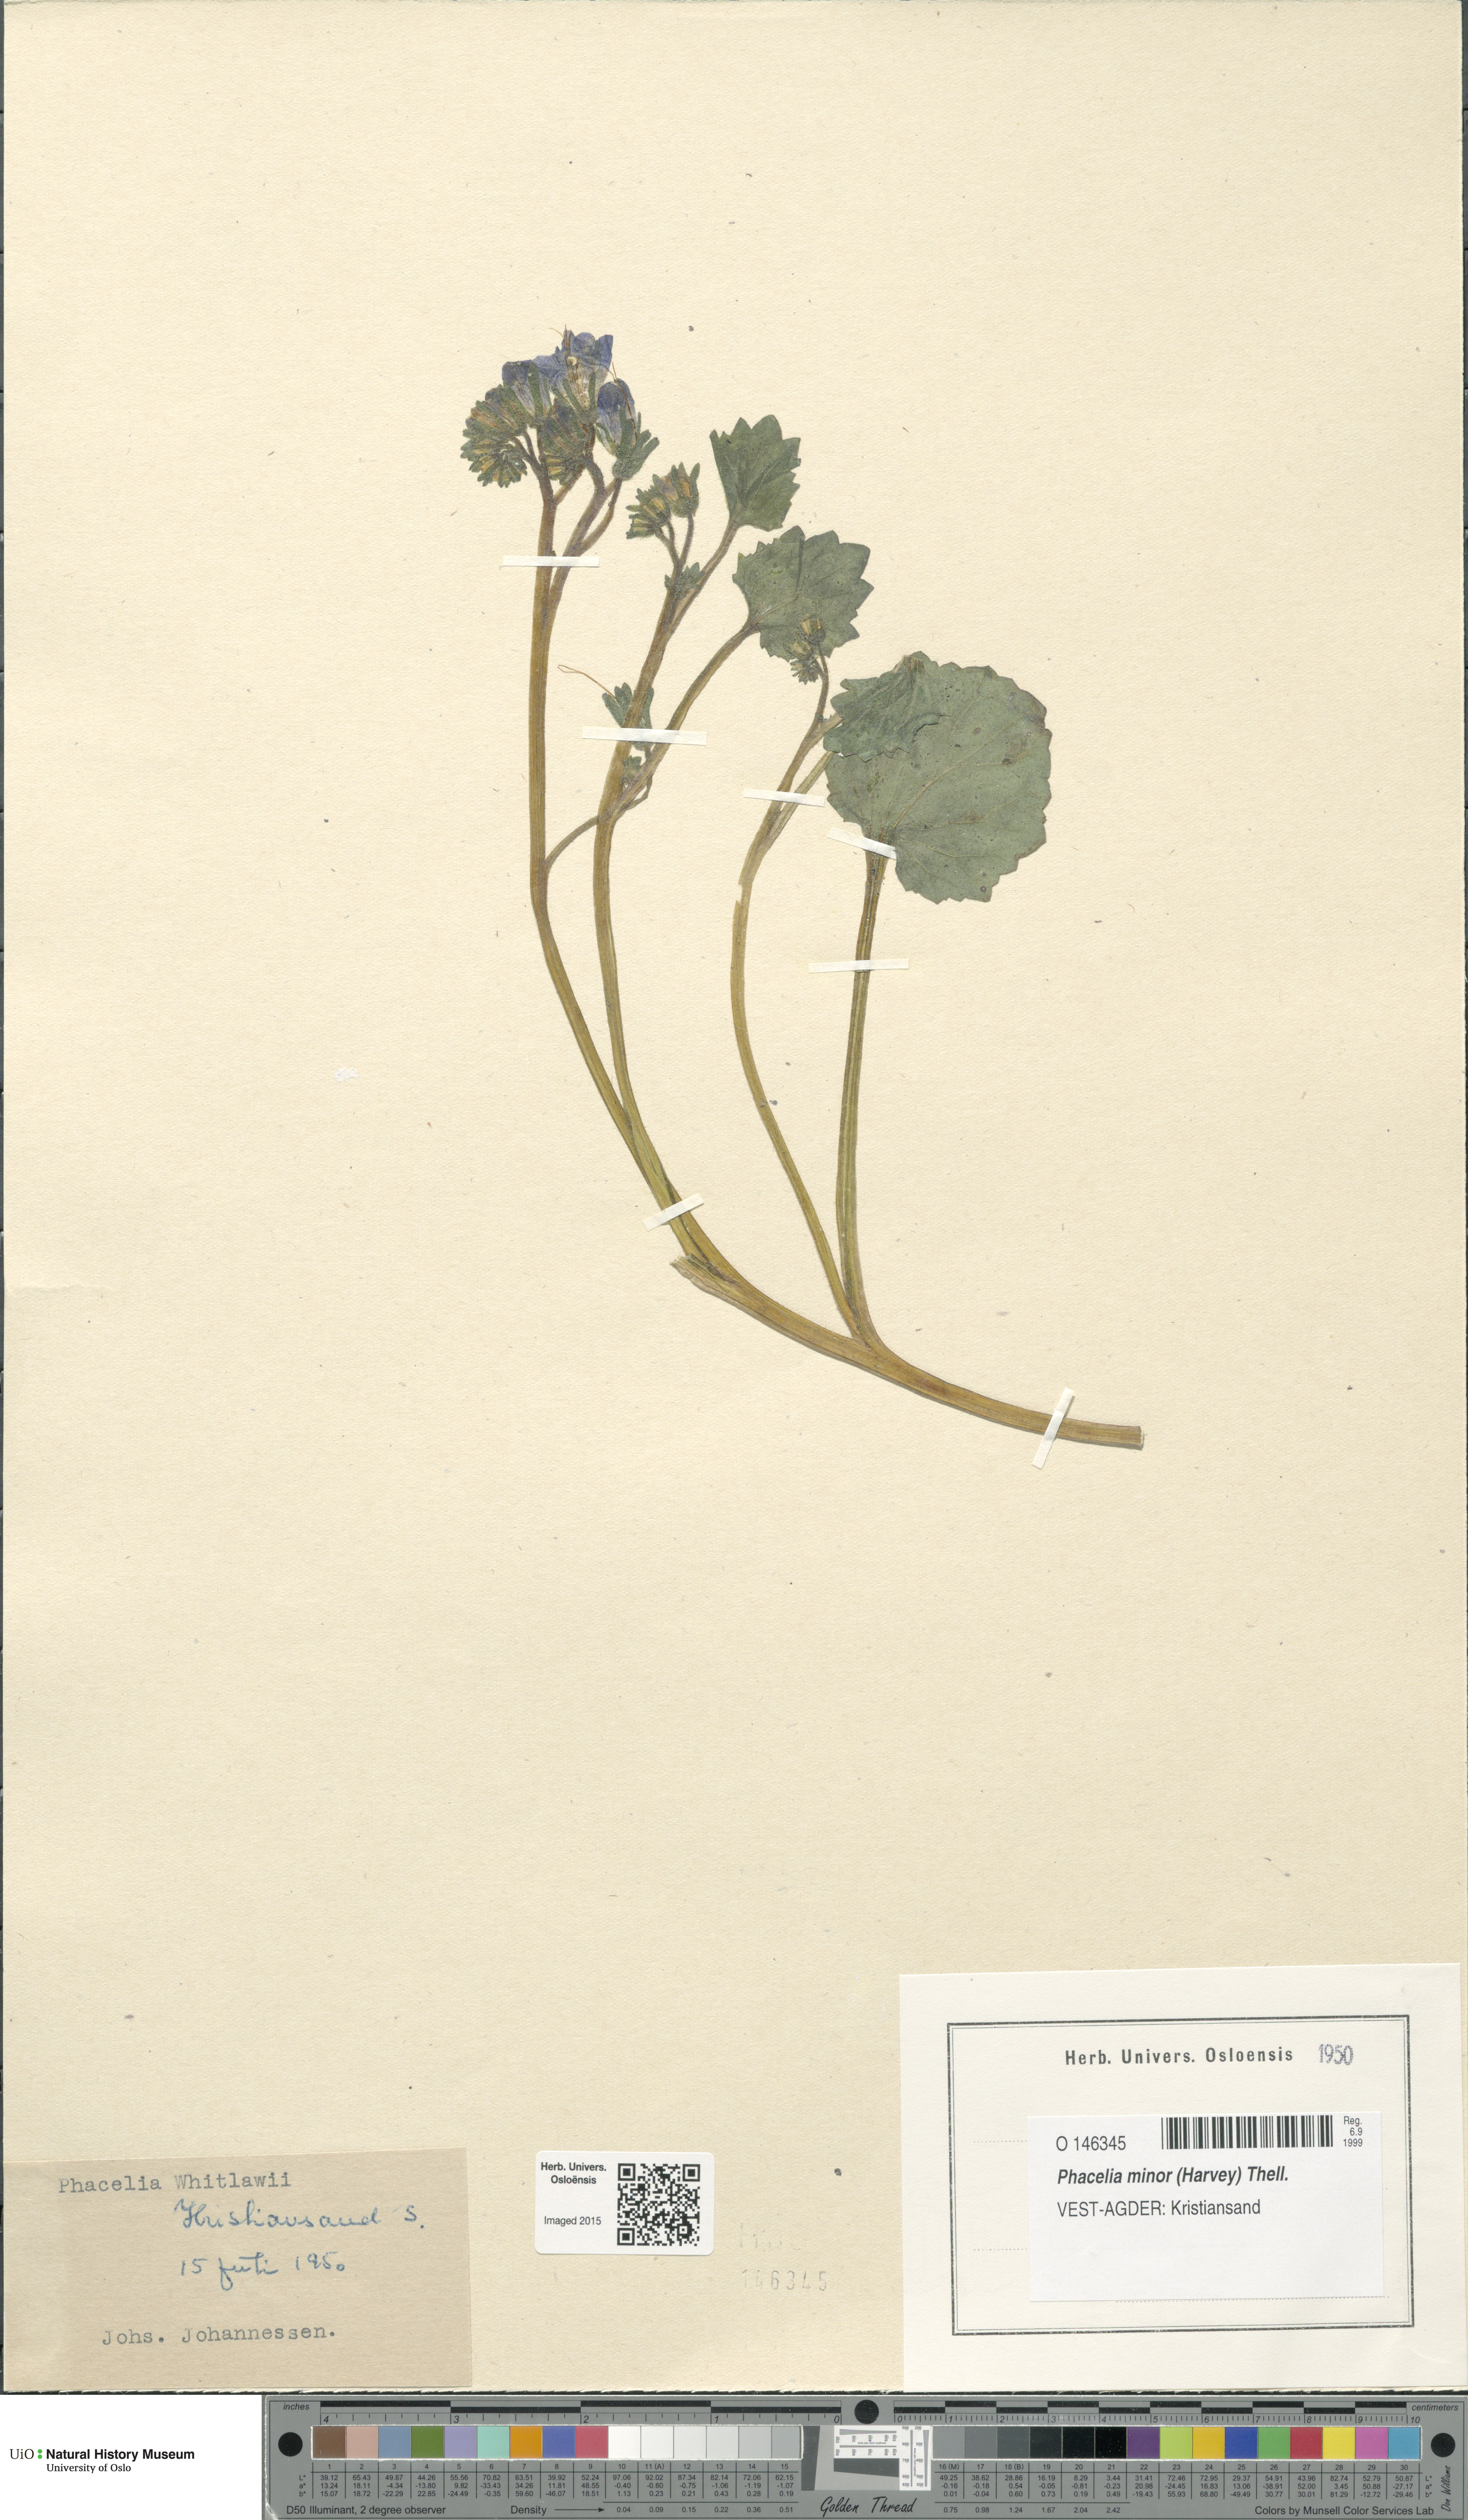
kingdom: Plantae
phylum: Tracheophyta
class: Magnoliopsida
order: Boraginales
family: Hydrophyllaceae
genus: Phacelia
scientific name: Phacelia minor
